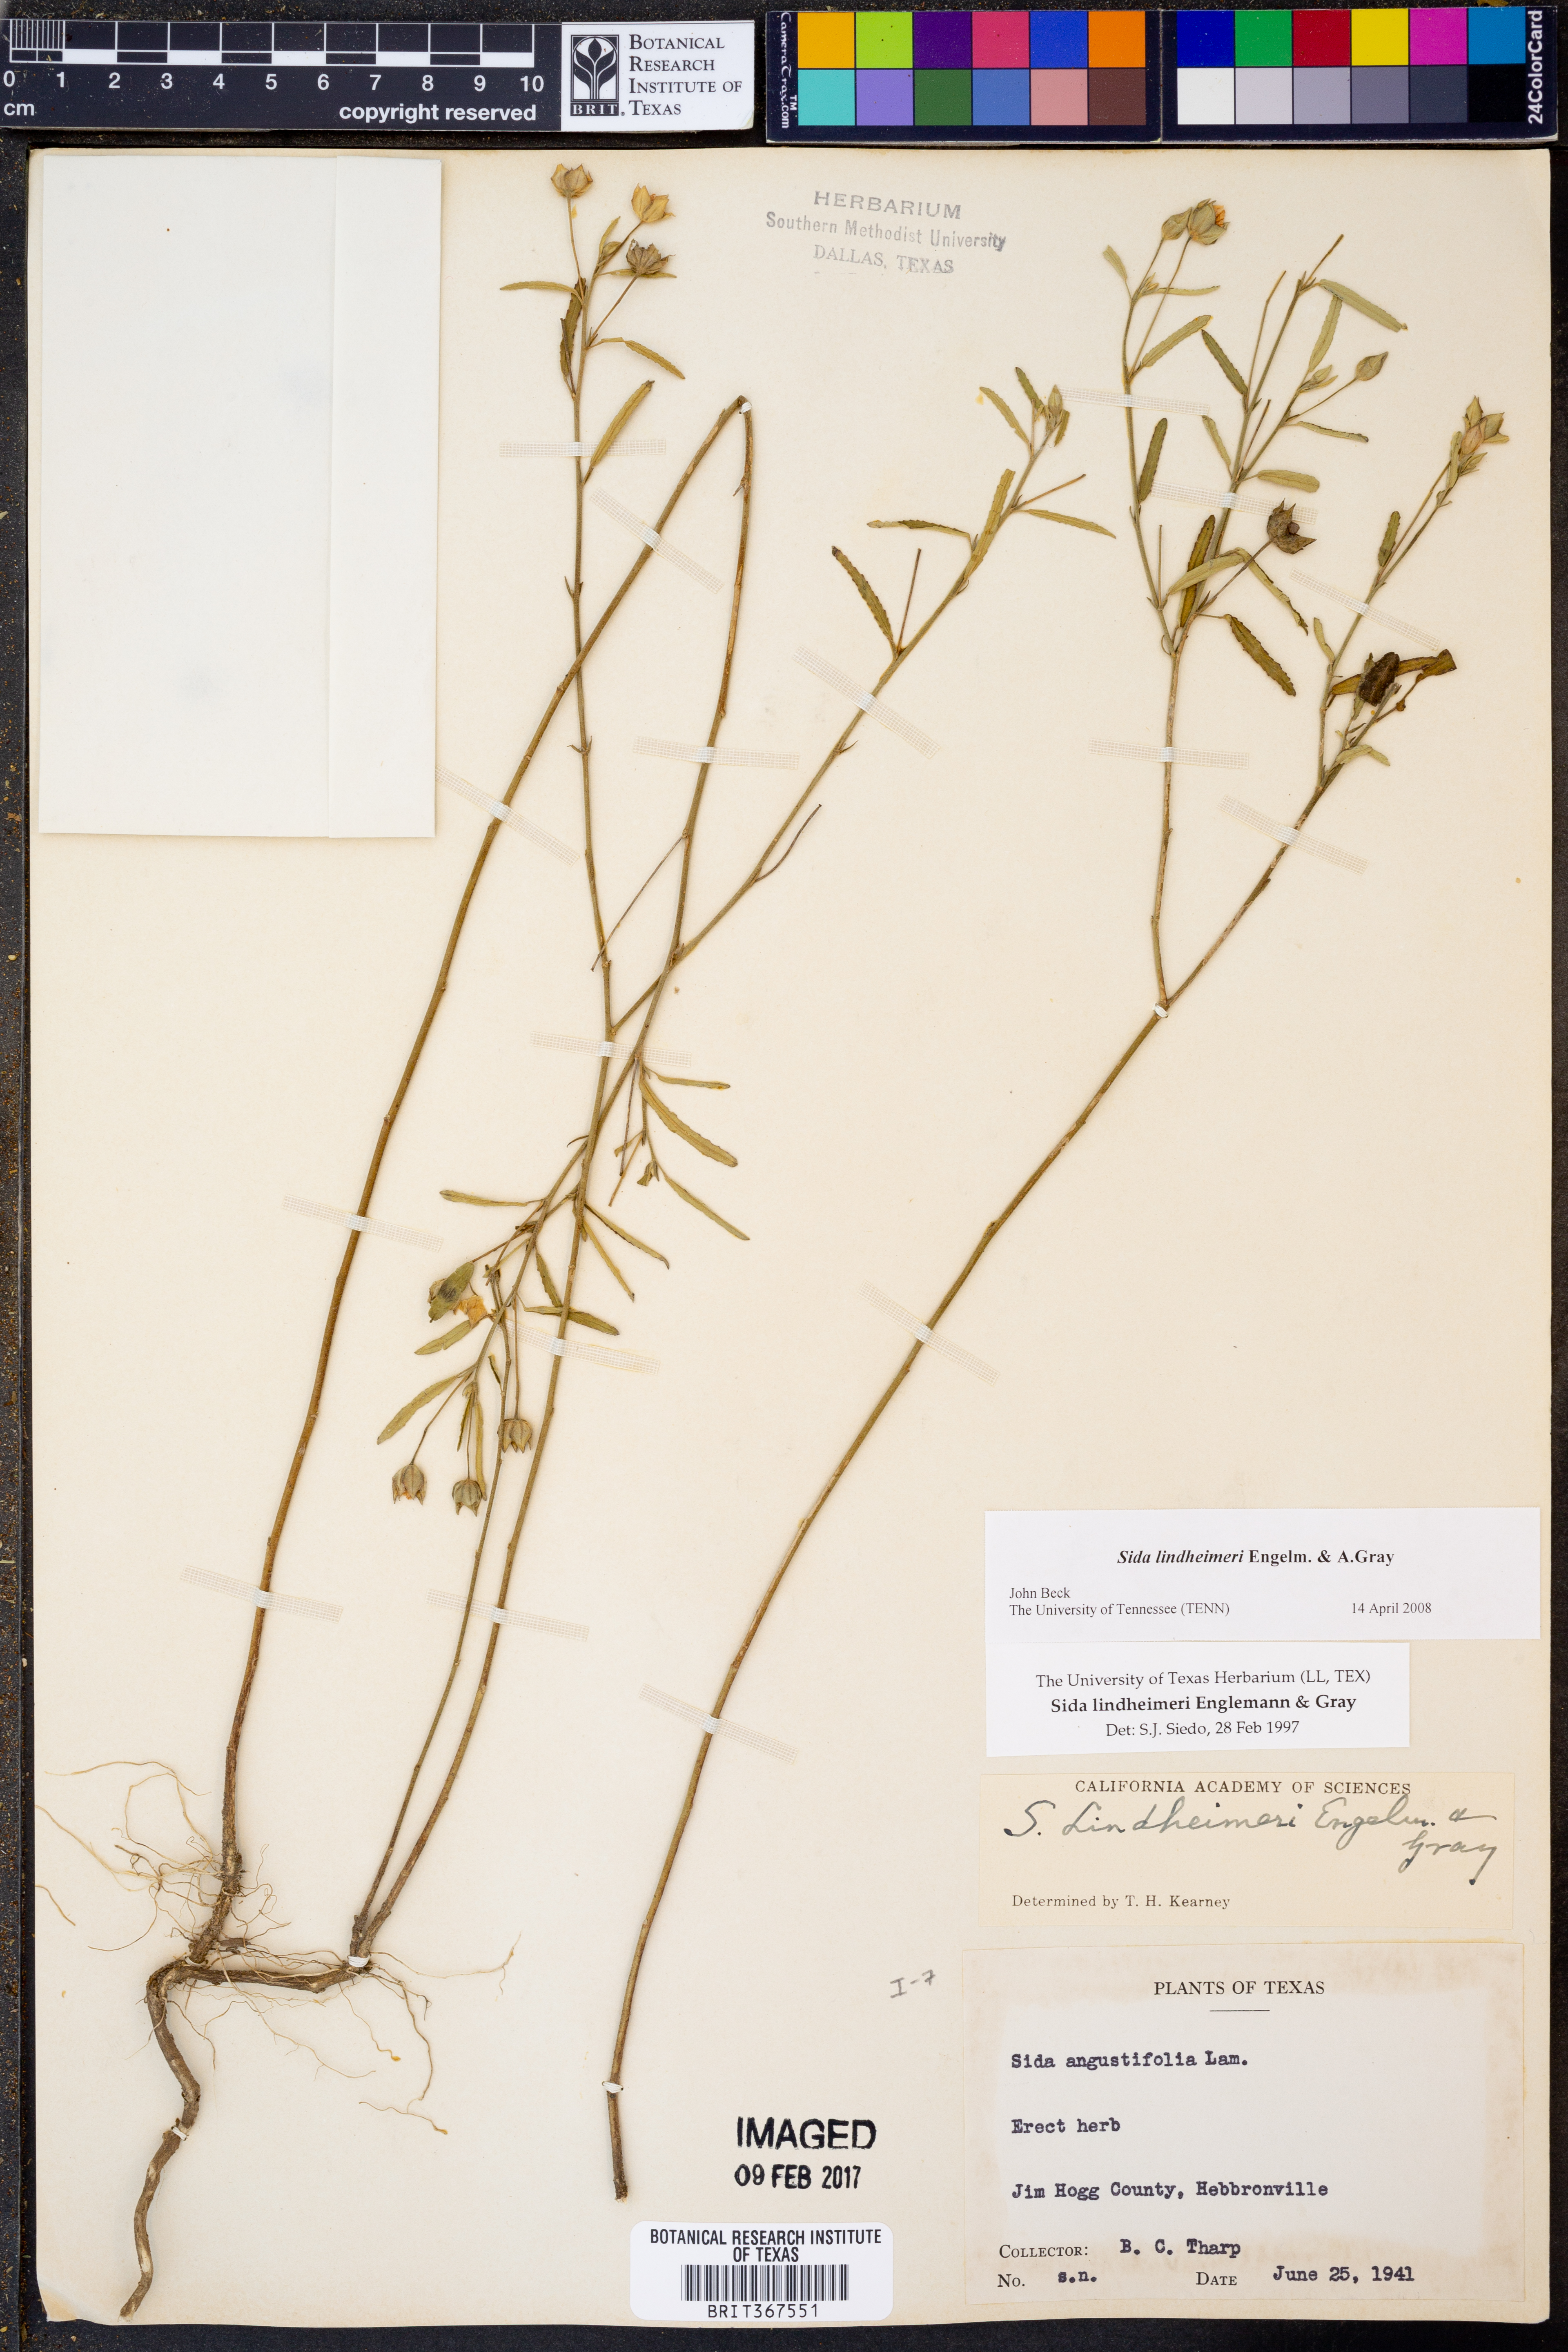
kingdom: Plantae
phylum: Tracheophyta
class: Magnoliopsida
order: Malvales
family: Malvaceae
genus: Sida
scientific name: Sida lindheimeri
